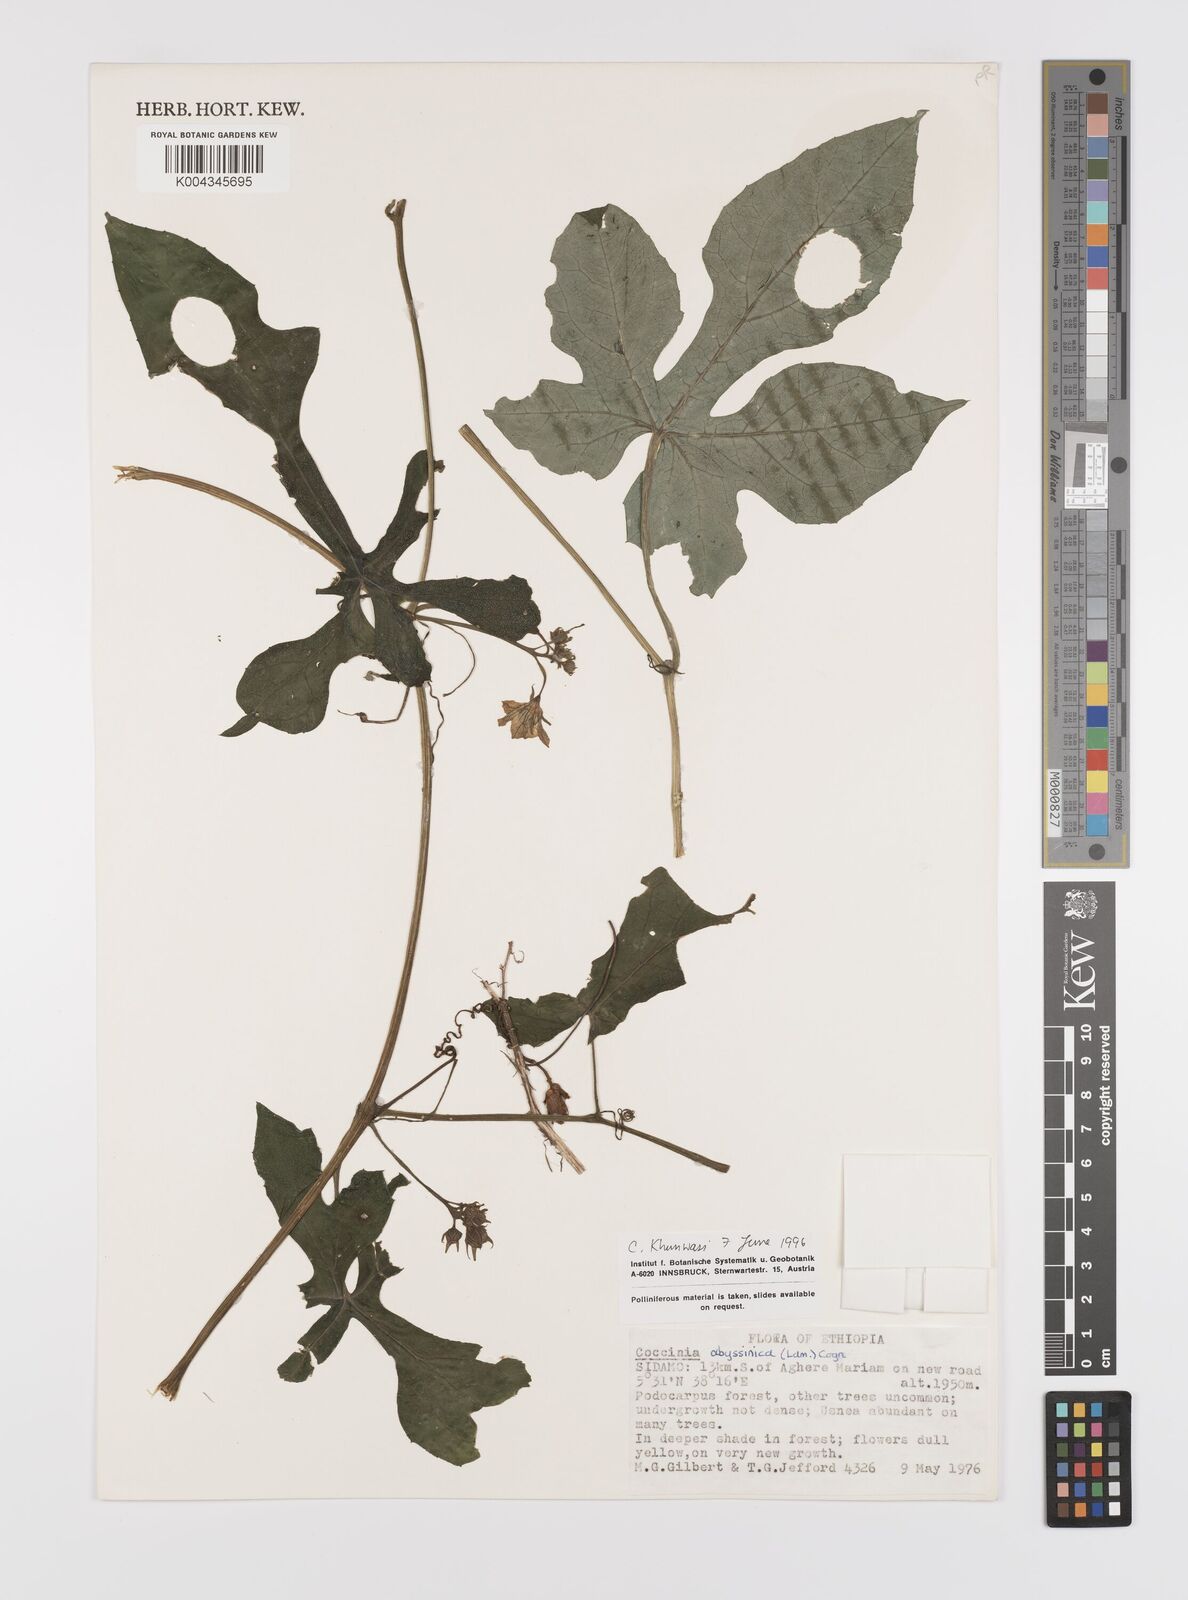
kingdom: Plantae
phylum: Tracheophyta
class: Magnoliopsida
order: Cucurbitales
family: Cucurbitaceae
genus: Coccinia
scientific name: Coccinia abyssinica
